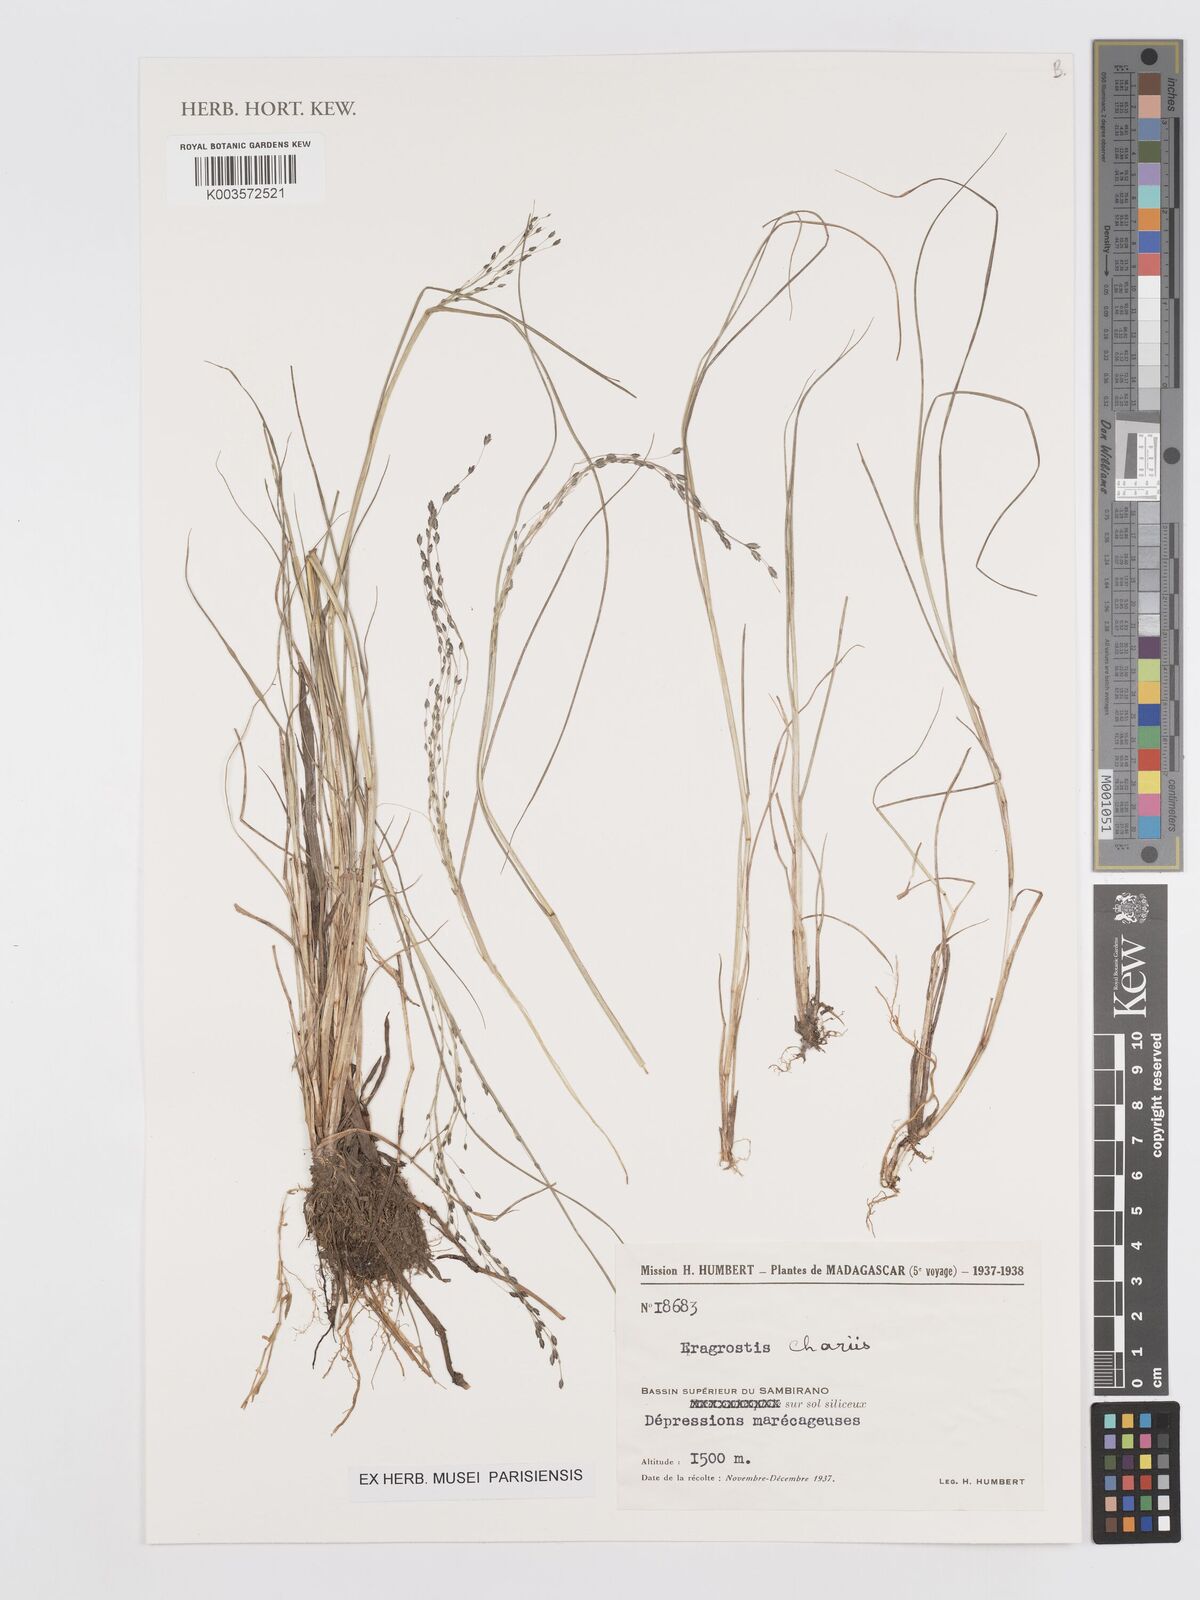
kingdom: Plantae
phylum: Tracheophyta
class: Liliopsida
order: Poales
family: Poaceae
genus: Eragrostis
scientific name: Eragrostis hildebrandtii
